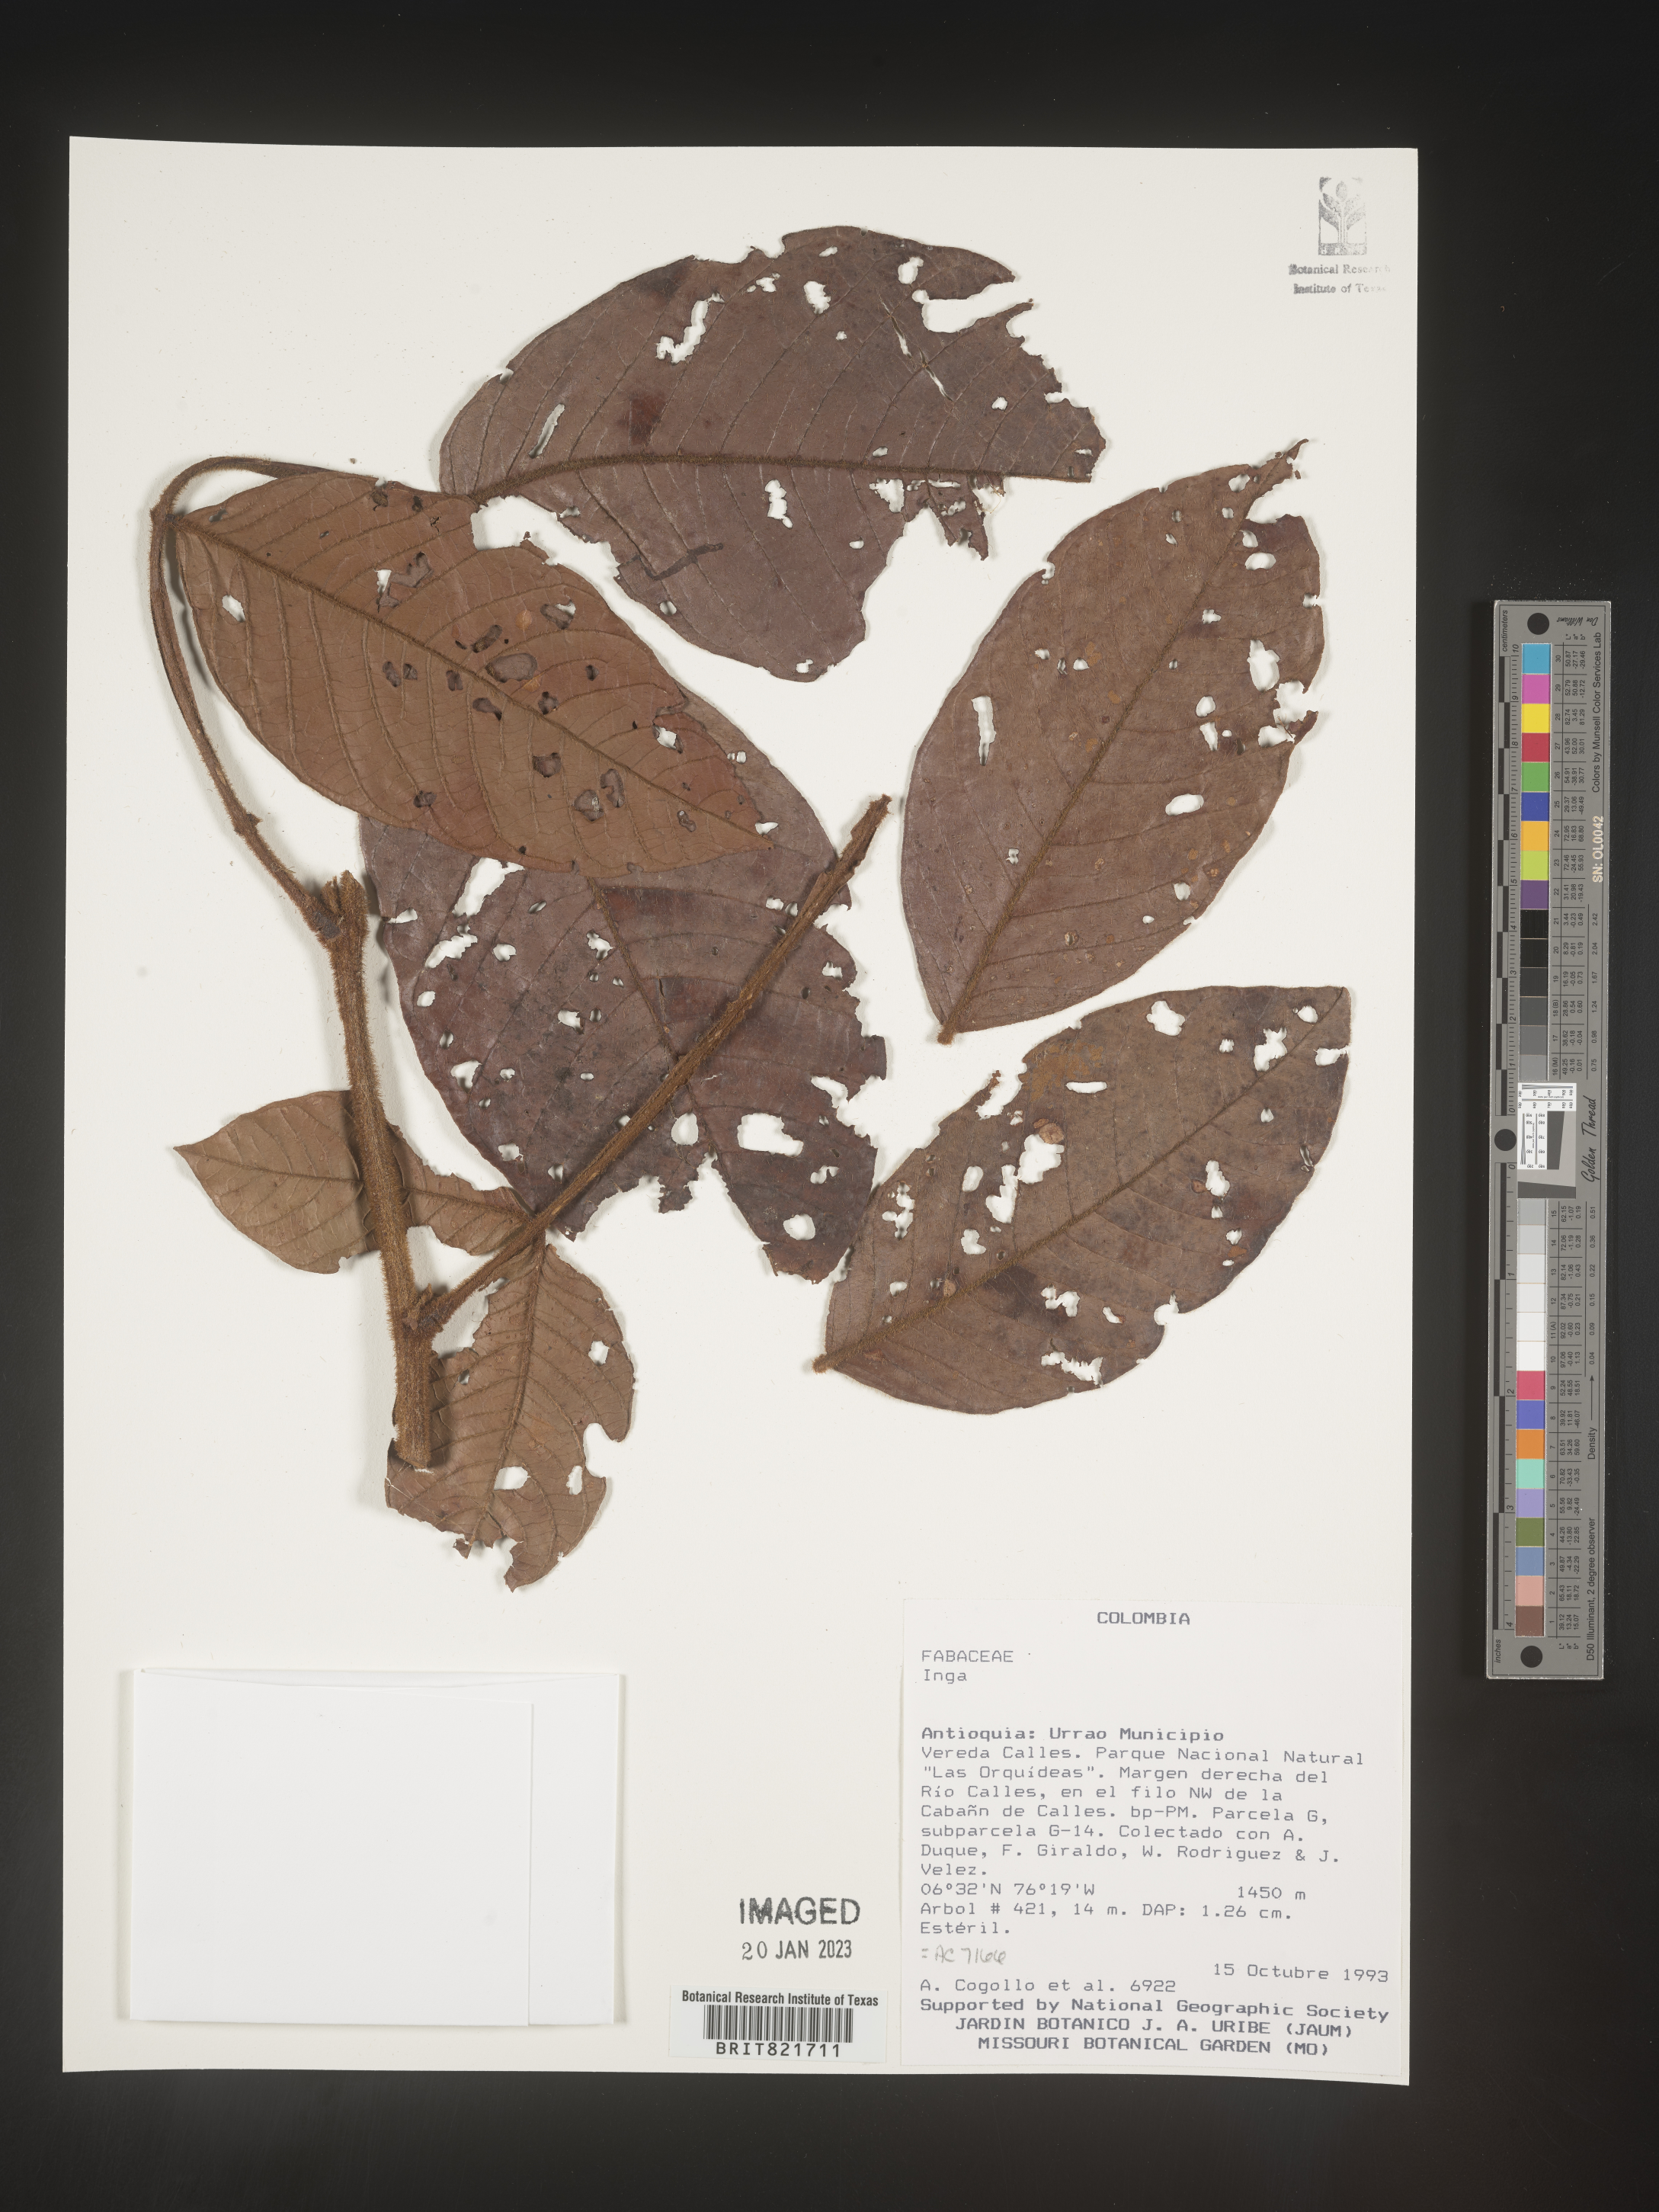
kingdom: Plantae
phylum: Tracheophyta
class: Magnoliopsida
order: Fabales
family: Fabaceae
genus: Inga
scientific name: Inga
